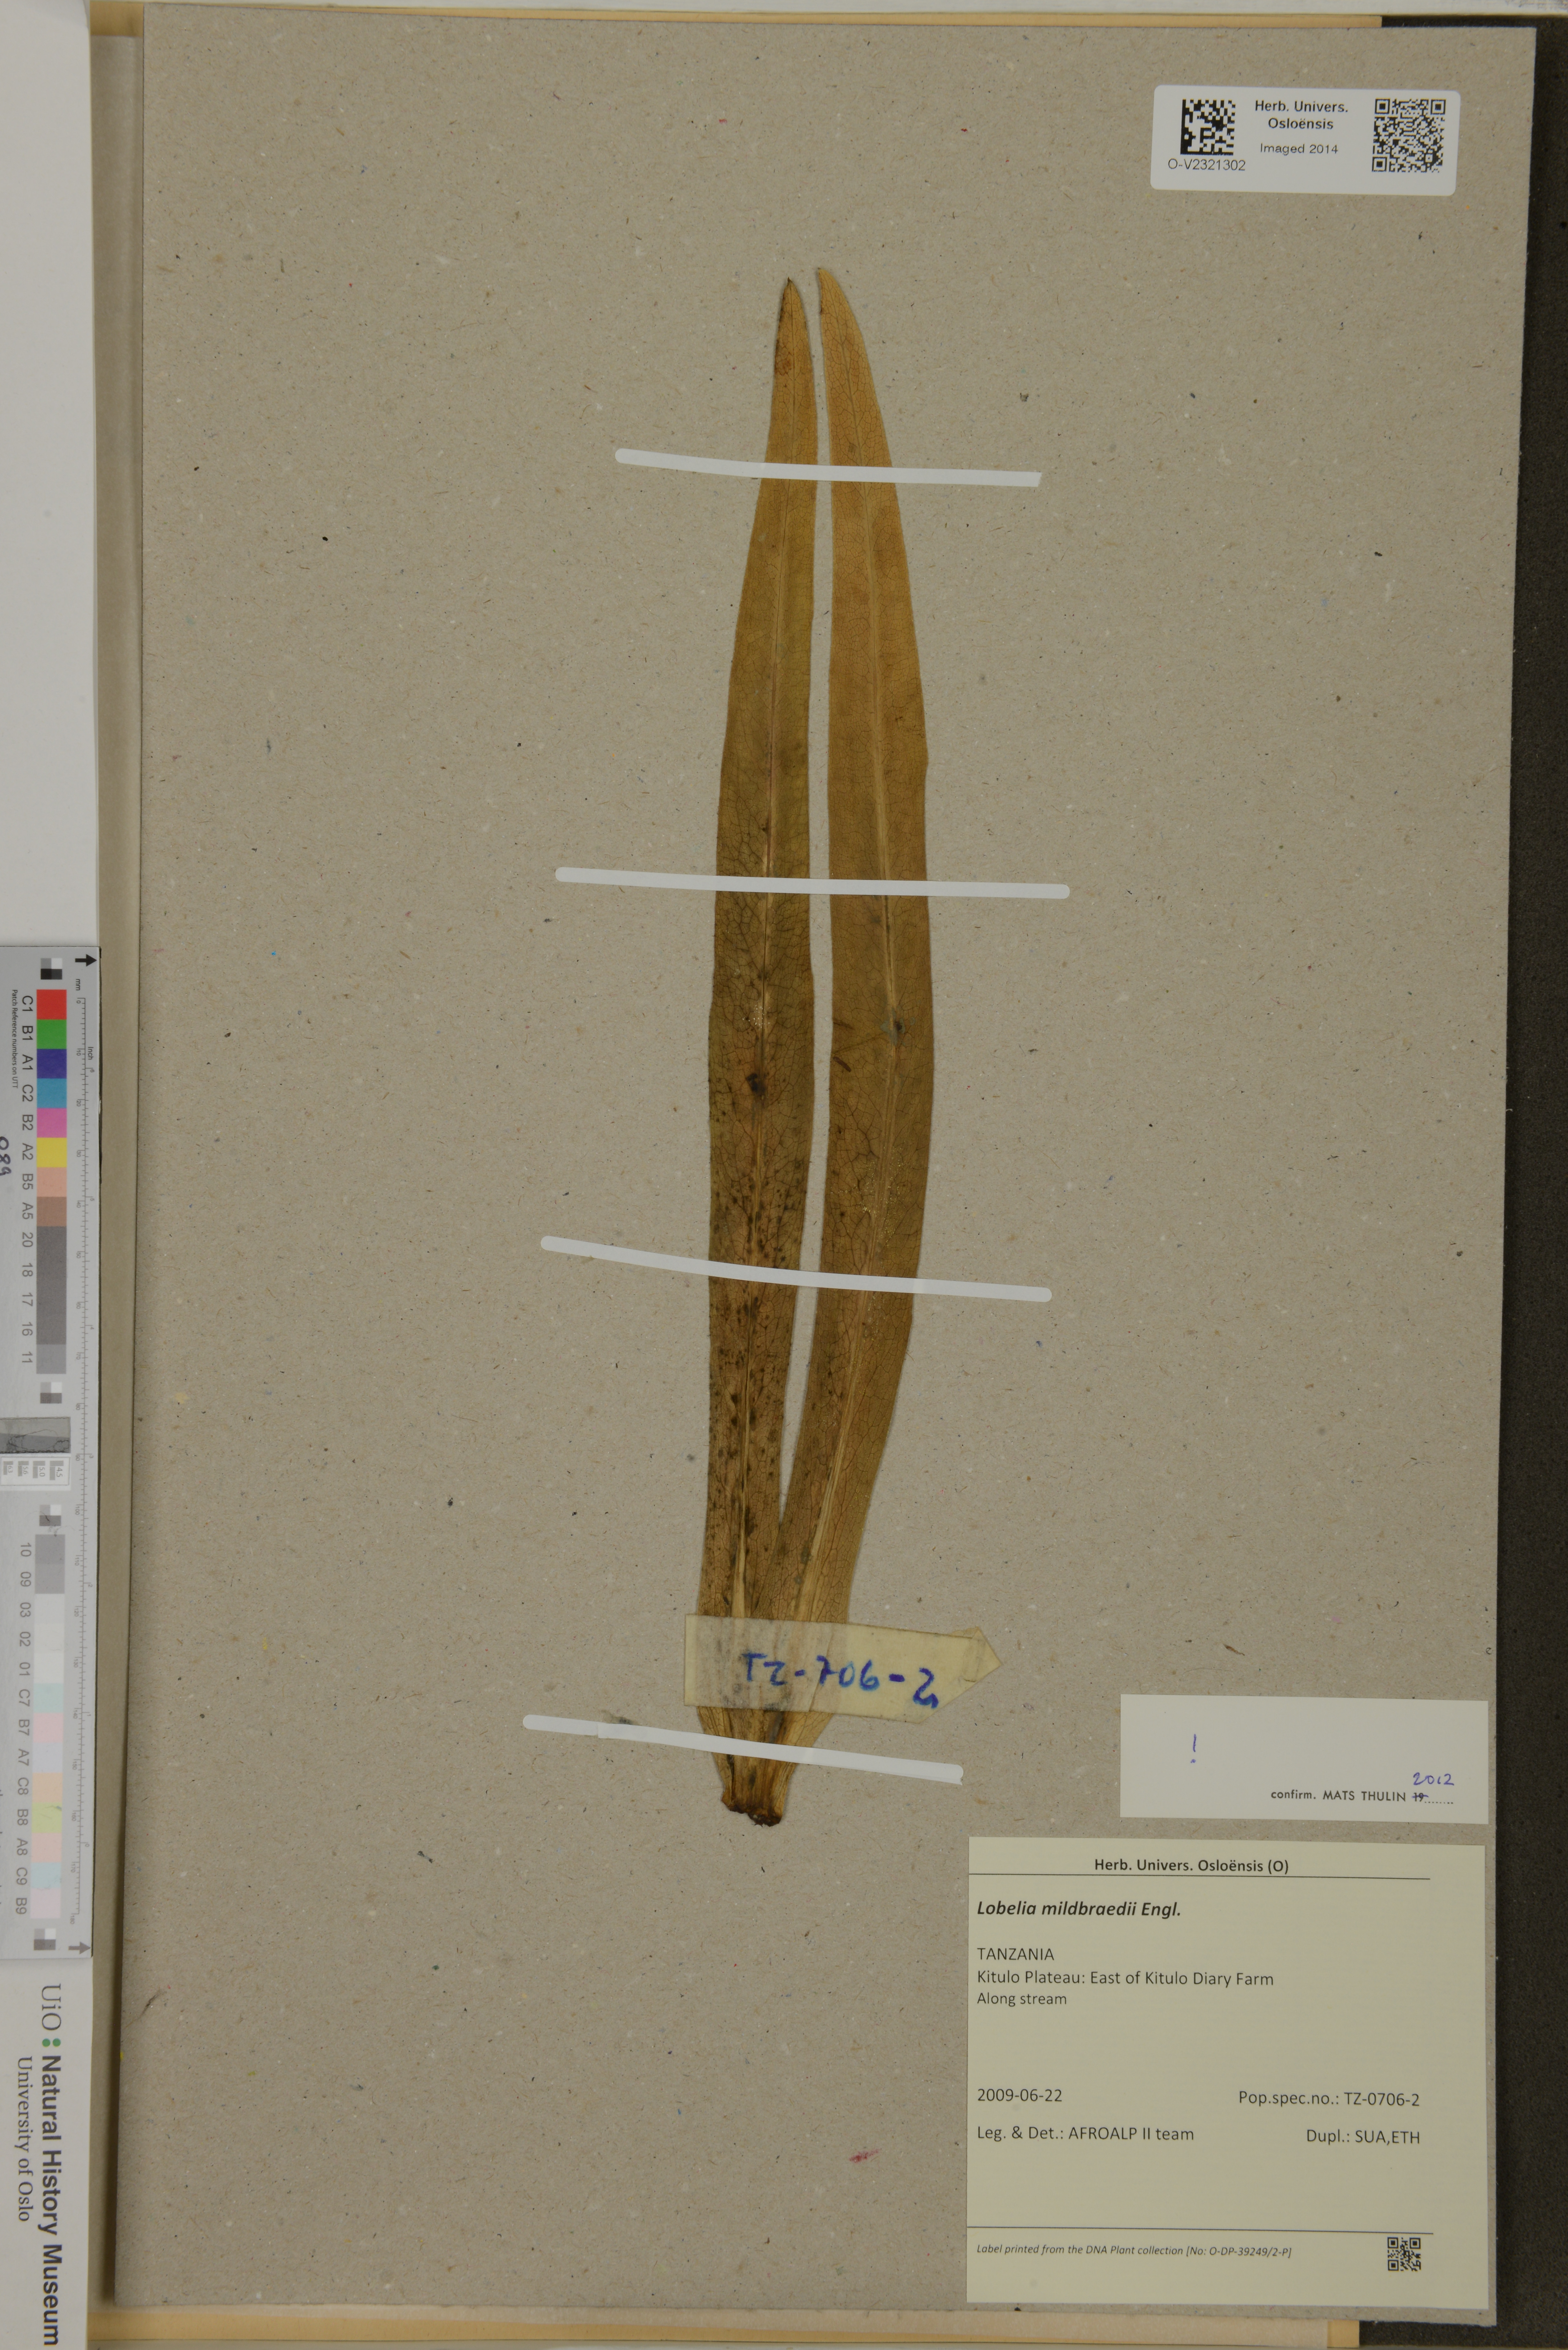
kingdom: Plantae
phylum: Tracheophyta
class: Magnoliopsida
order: Asterales
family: Campanulaceae
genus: Lobelia
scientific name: Lobelia mildbraedii
